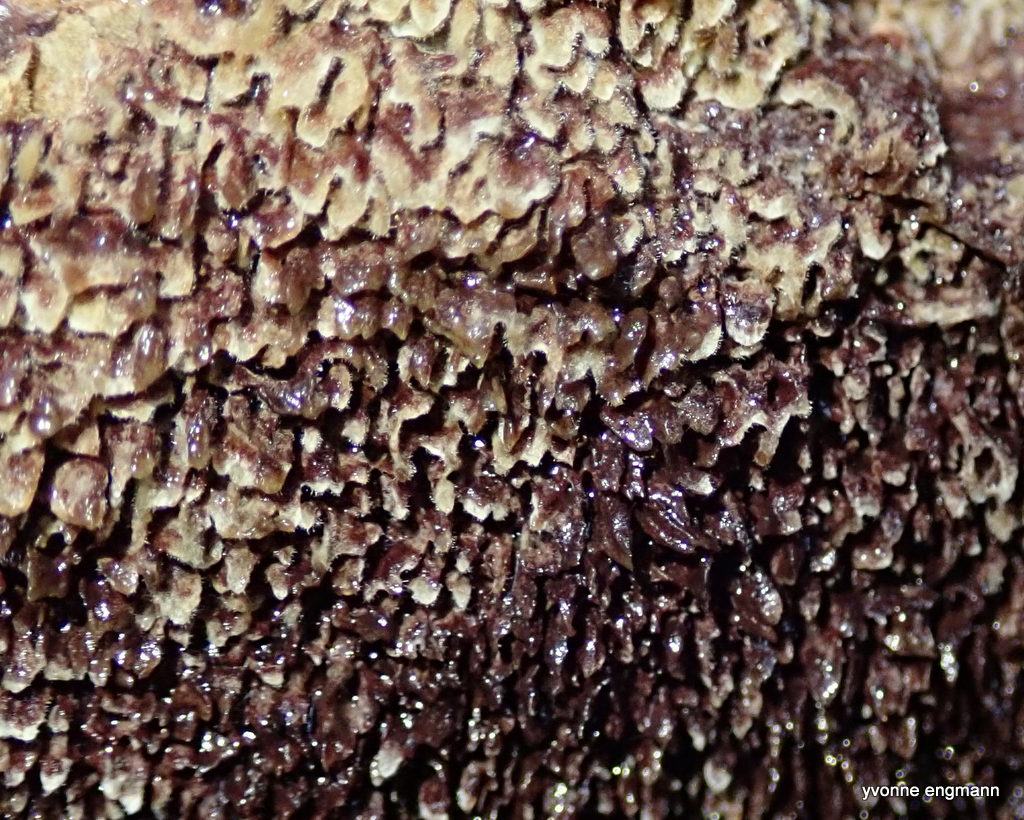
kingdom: Fungi
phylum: Basidiomycota
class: Agaricomycetes
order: Polyporales
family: Laetiporaceae
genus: Phaeolus
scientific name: Phaeolus schweinitzii
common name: brunporesvamp
